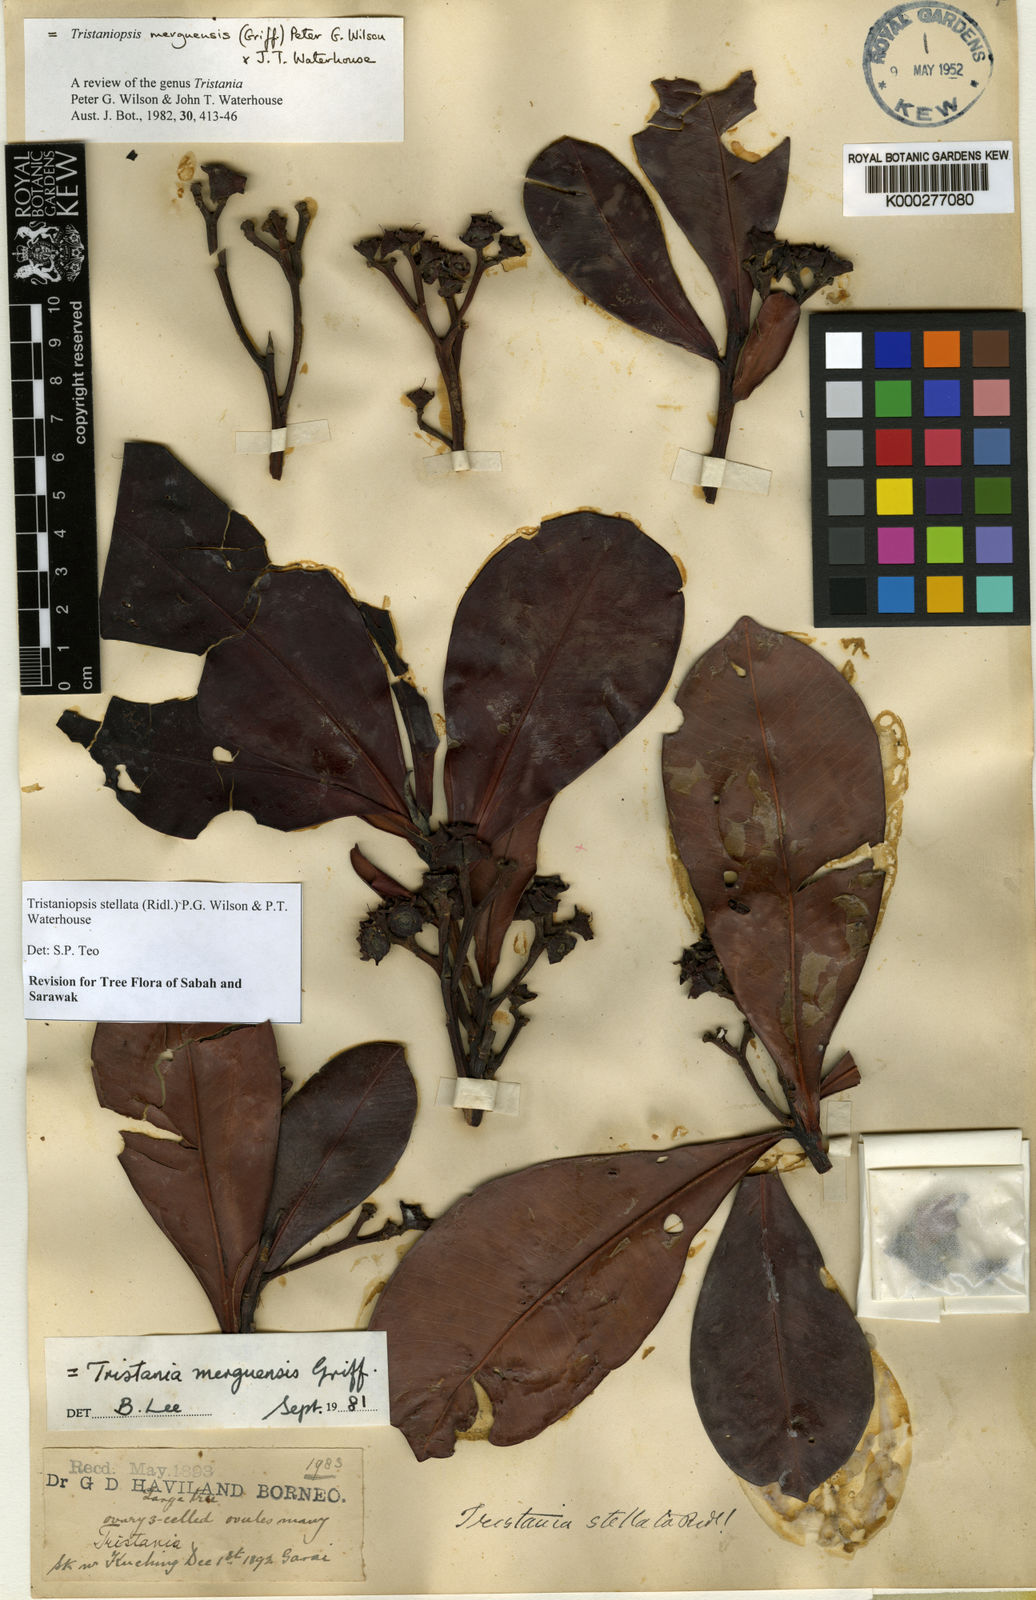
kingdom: Plantae
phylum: Tracheophyta
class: Magnoliopsida
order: Myrtales
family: Myrtaceae
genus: Tristaniopsis
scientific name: Tristaniopsis merguensis
